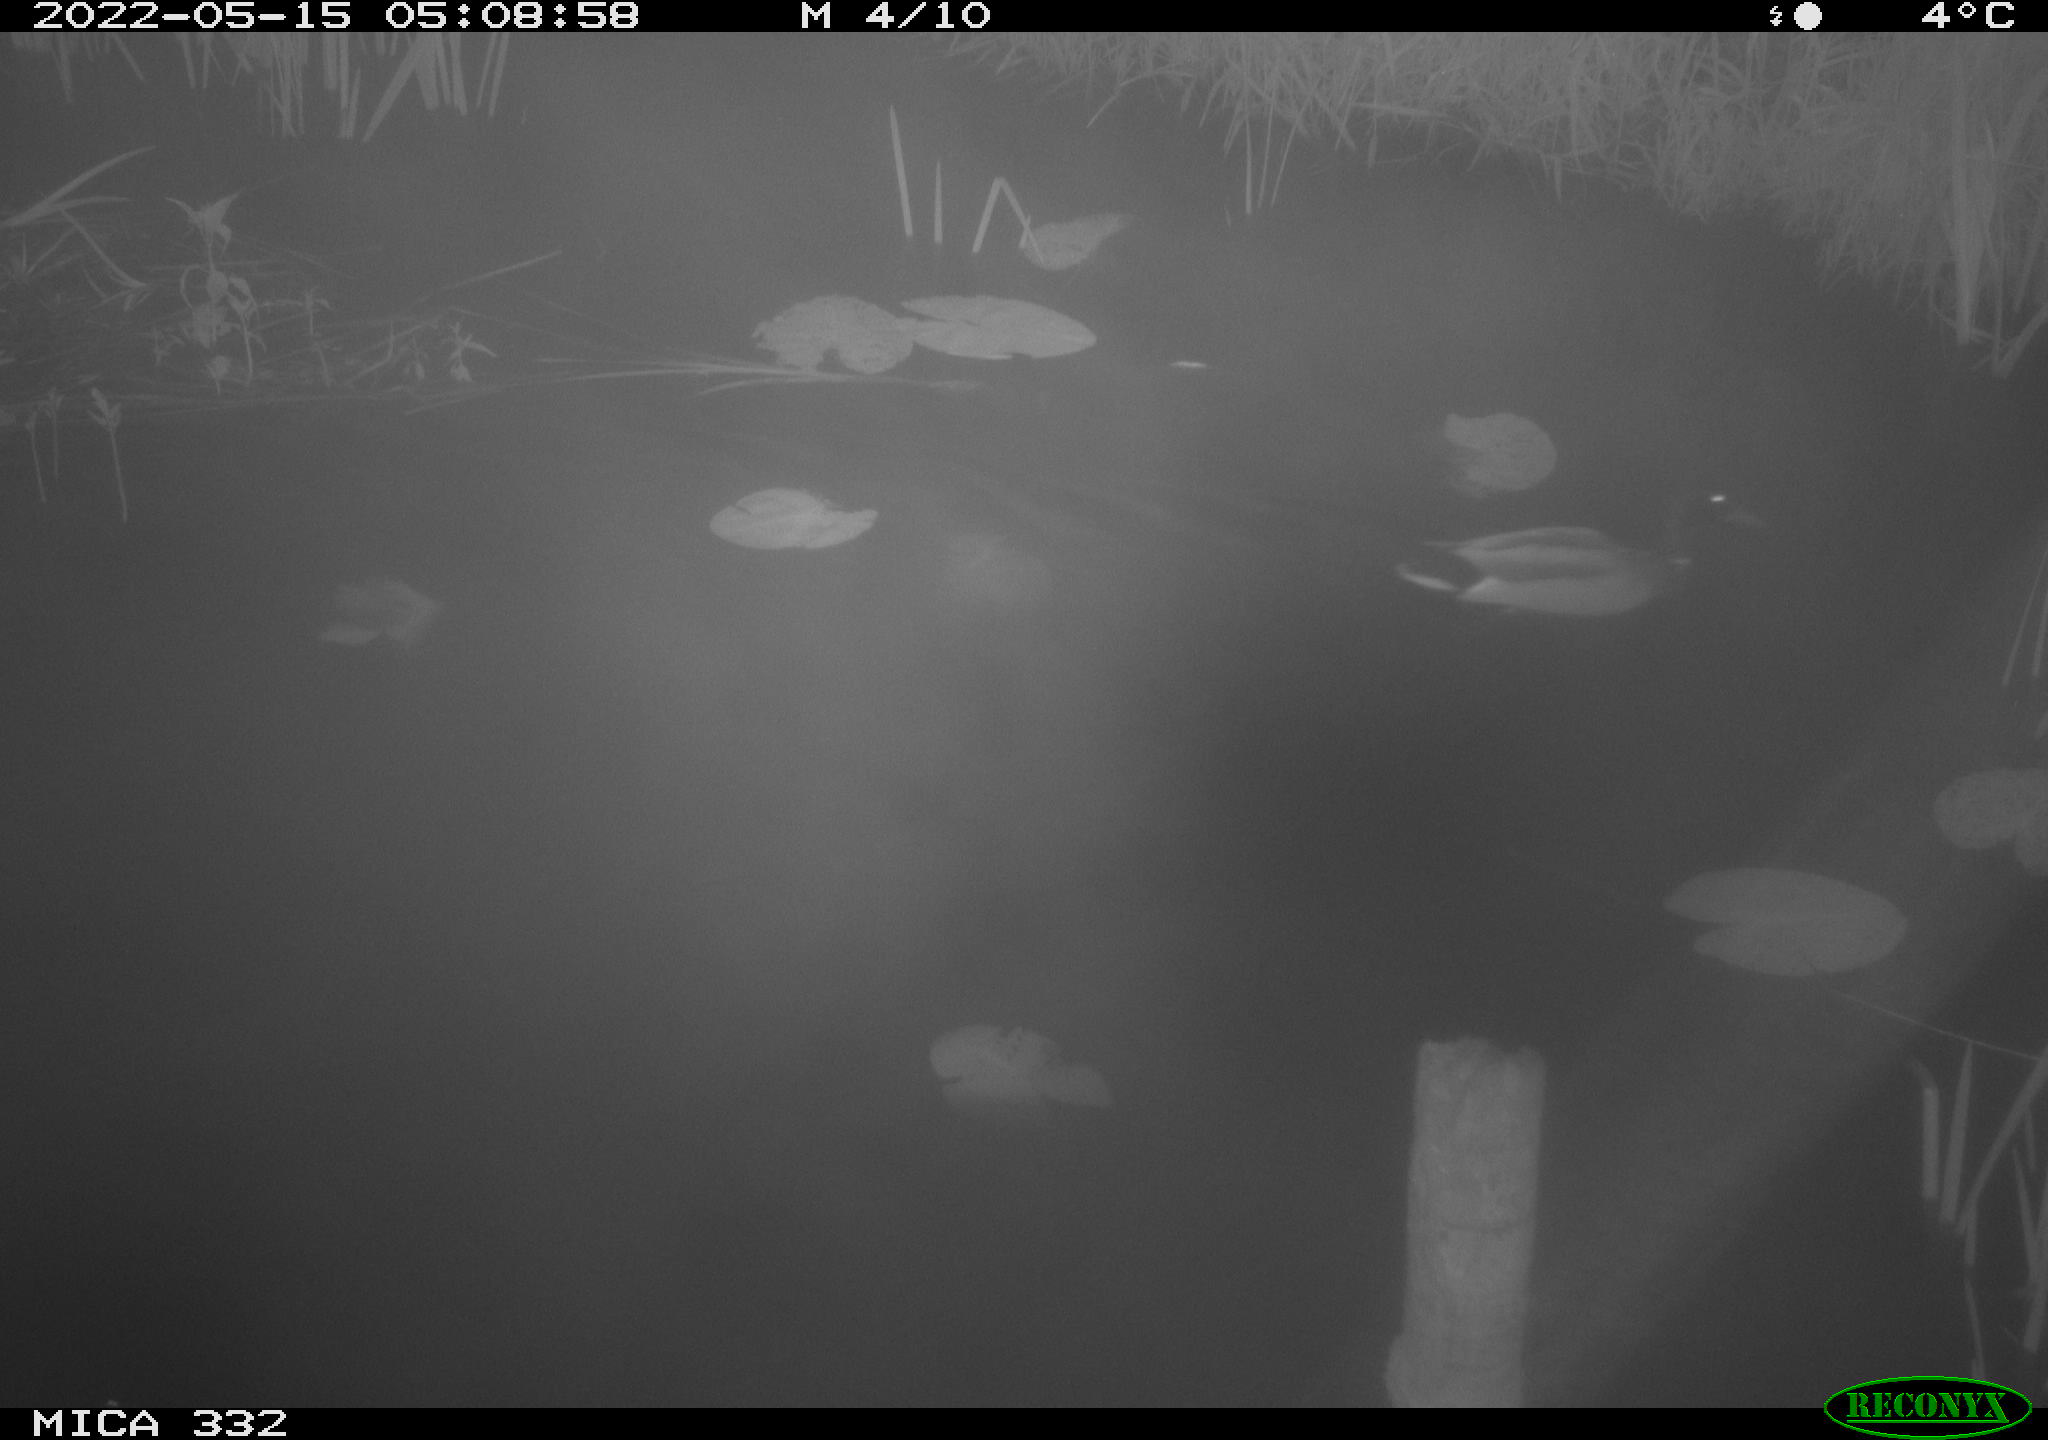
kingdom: Animalia
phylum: Chordata
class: Aves
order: Anseriformes
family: Anatidae
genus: Anas
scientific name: Anas platyrhynchos
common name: Mallard
